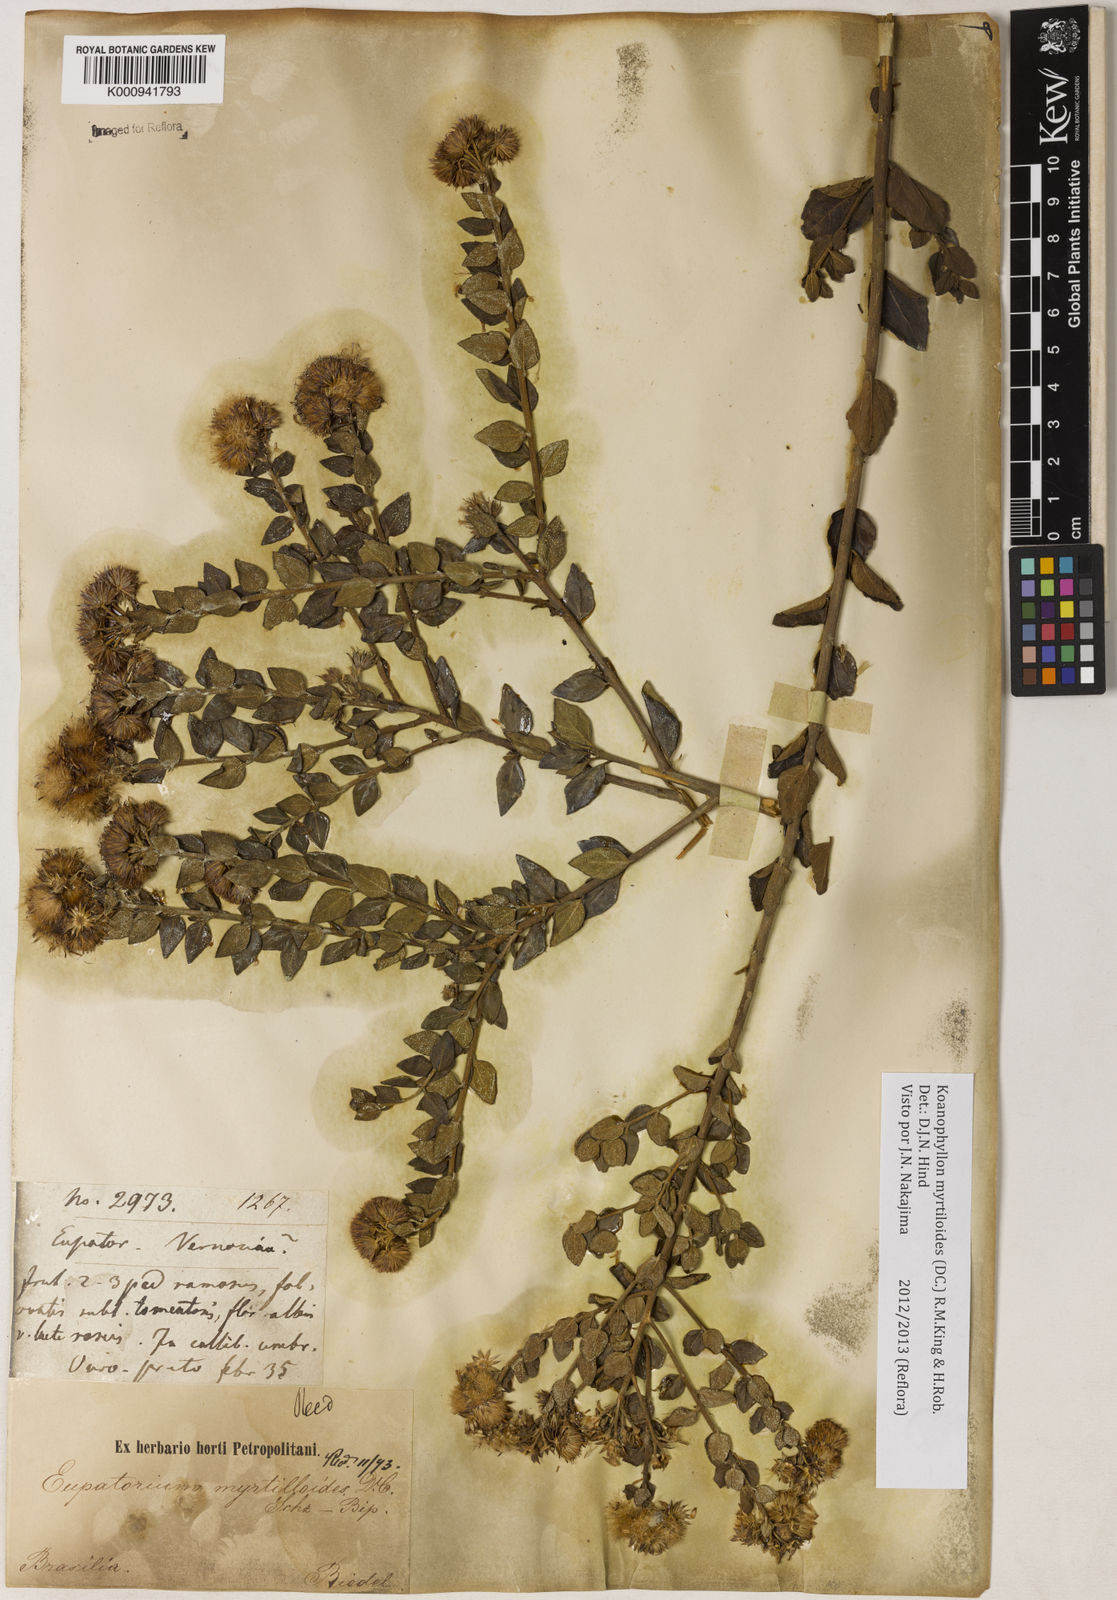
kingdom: Plantae
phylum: Tracheophyta
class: Magnoliopsida
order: Asterales
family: Asteraceae
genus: Koanophyllon
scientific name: Koanophyllon myrtilloides
